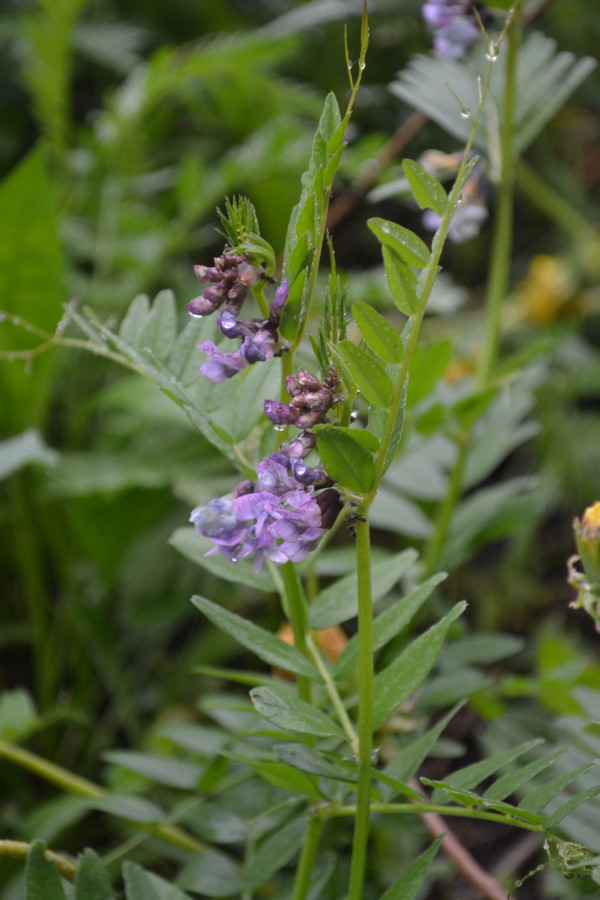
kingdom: Plantae
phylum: Tracheophyta
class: Magnoliopsida
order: Fabales
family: Fabaceae
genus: Vicia
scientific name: Vicia cracca
